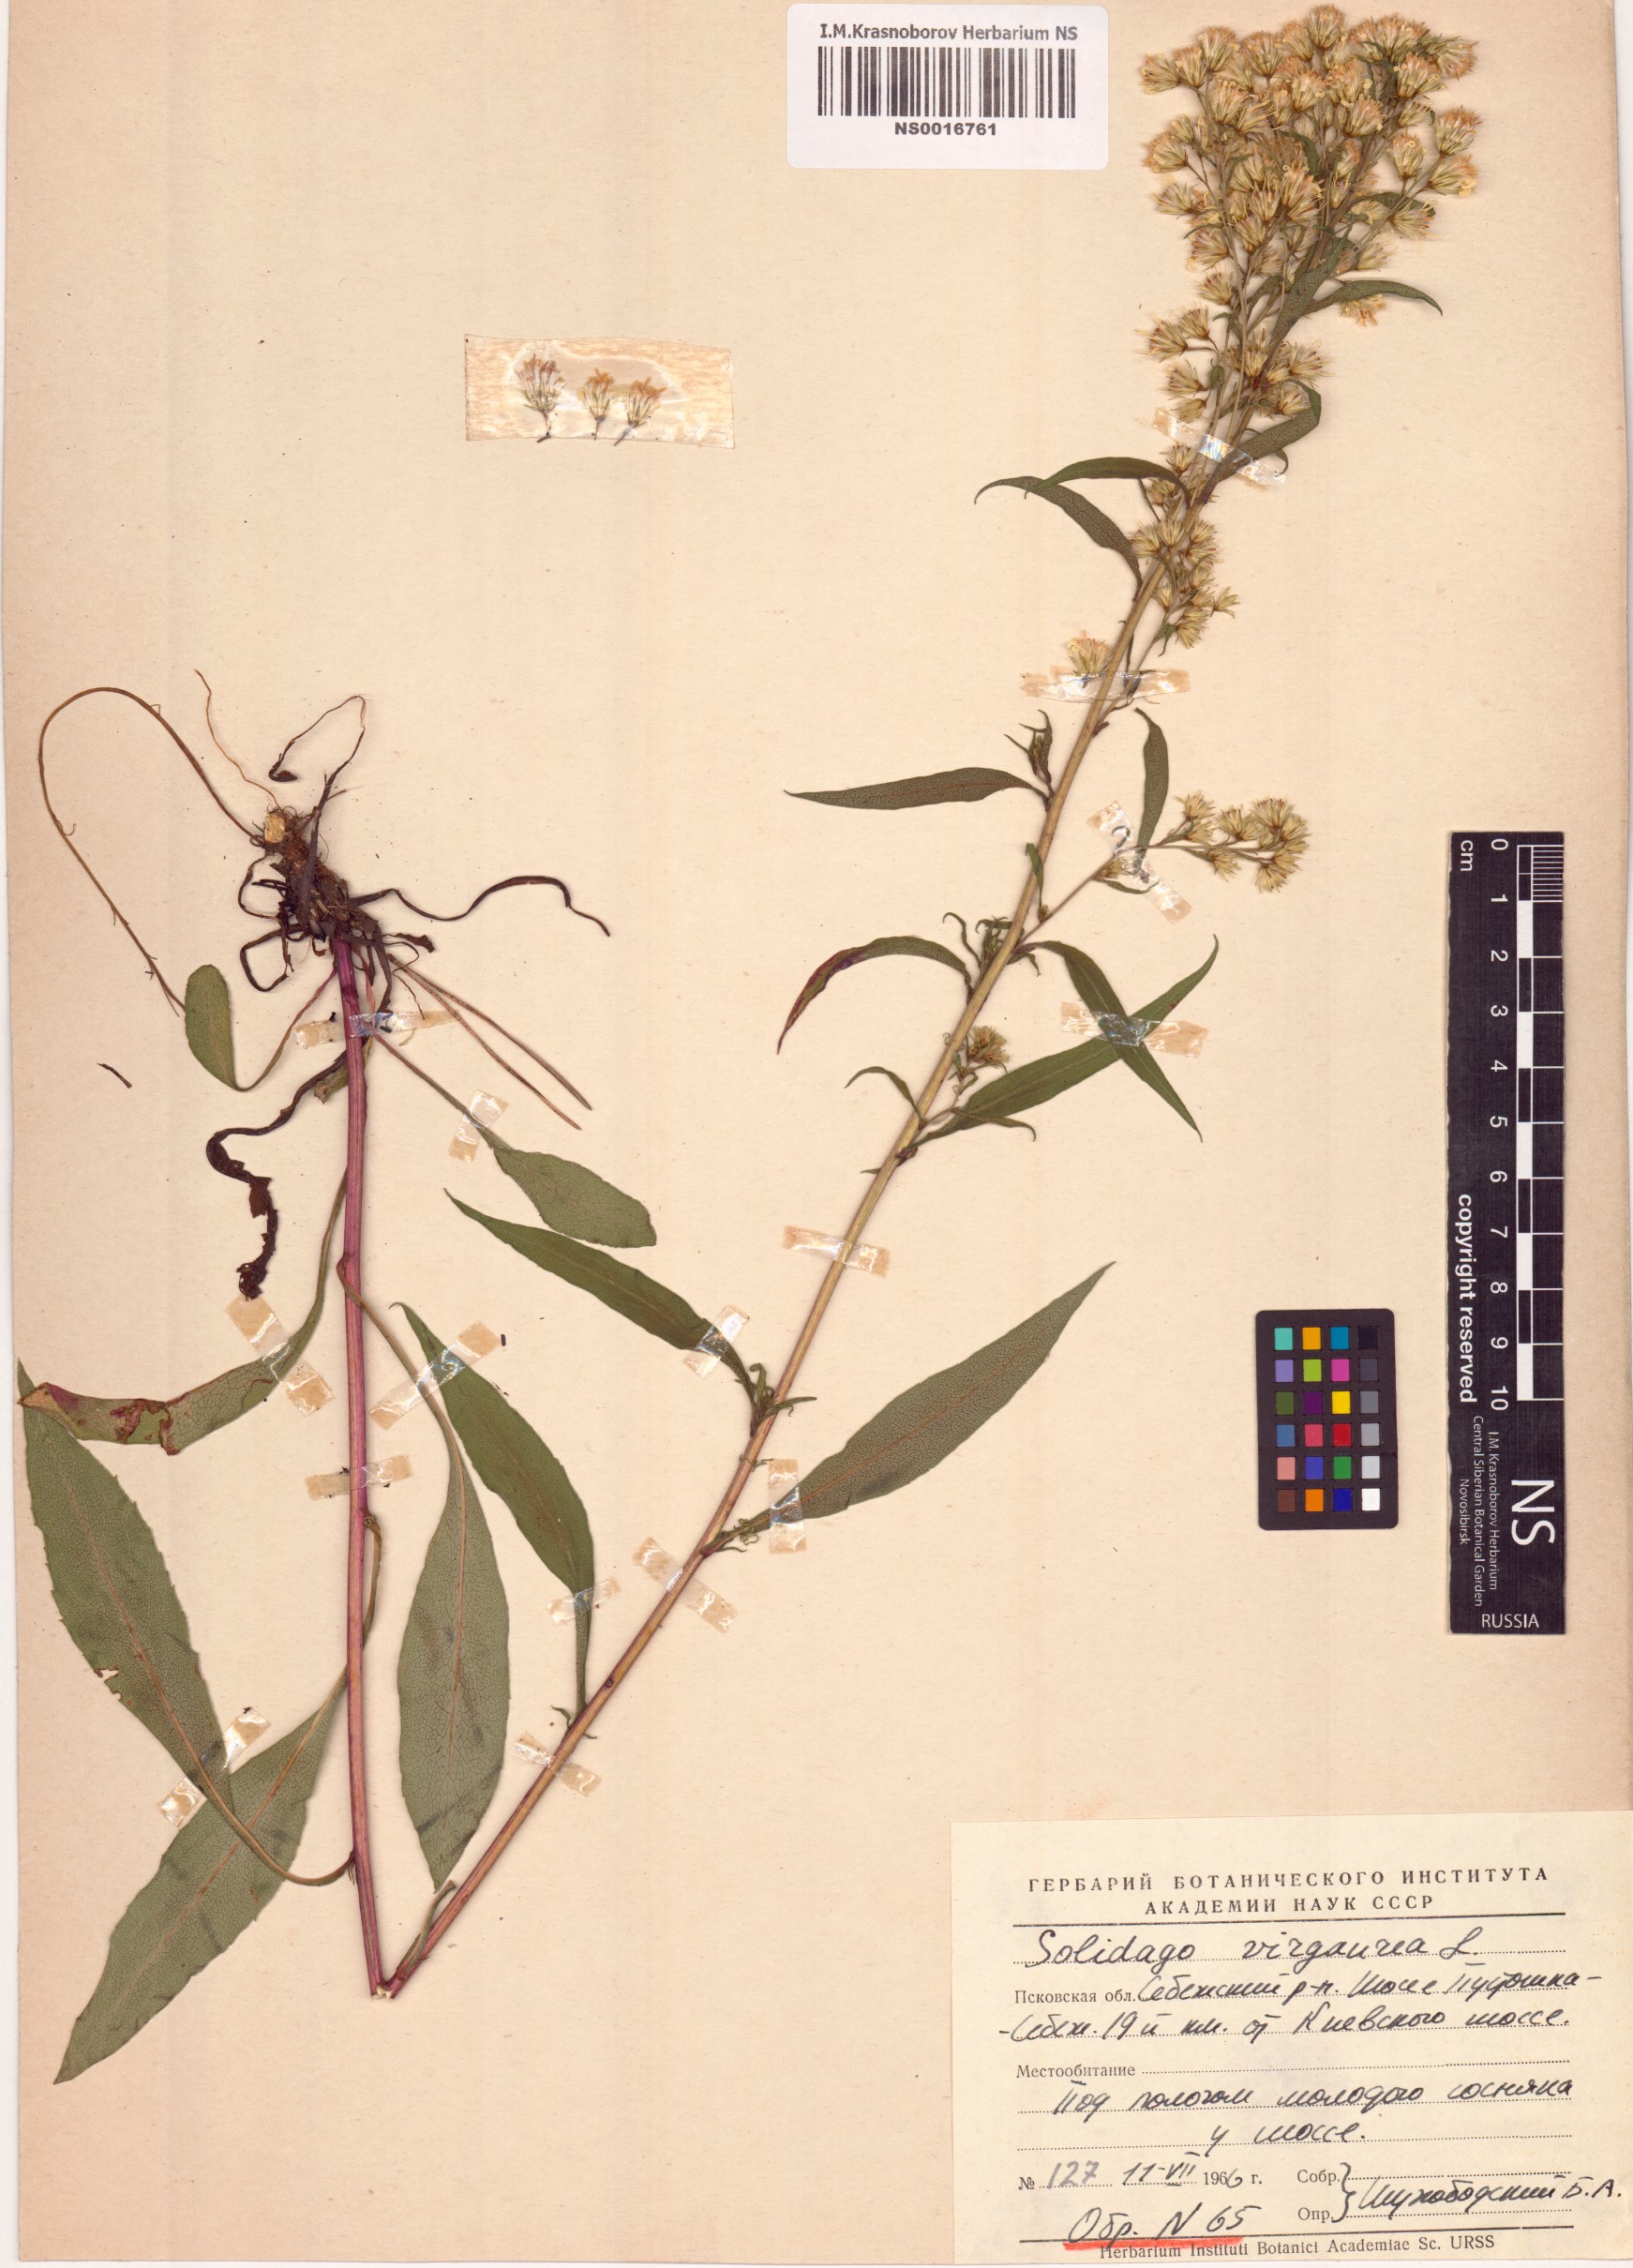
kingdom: Plantae
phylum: Tracheophyta
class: Magnoliopsida
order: Asterales
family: Asteraceae
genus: Solidago
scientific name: Solidago virgaurea
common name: Goldenrod
